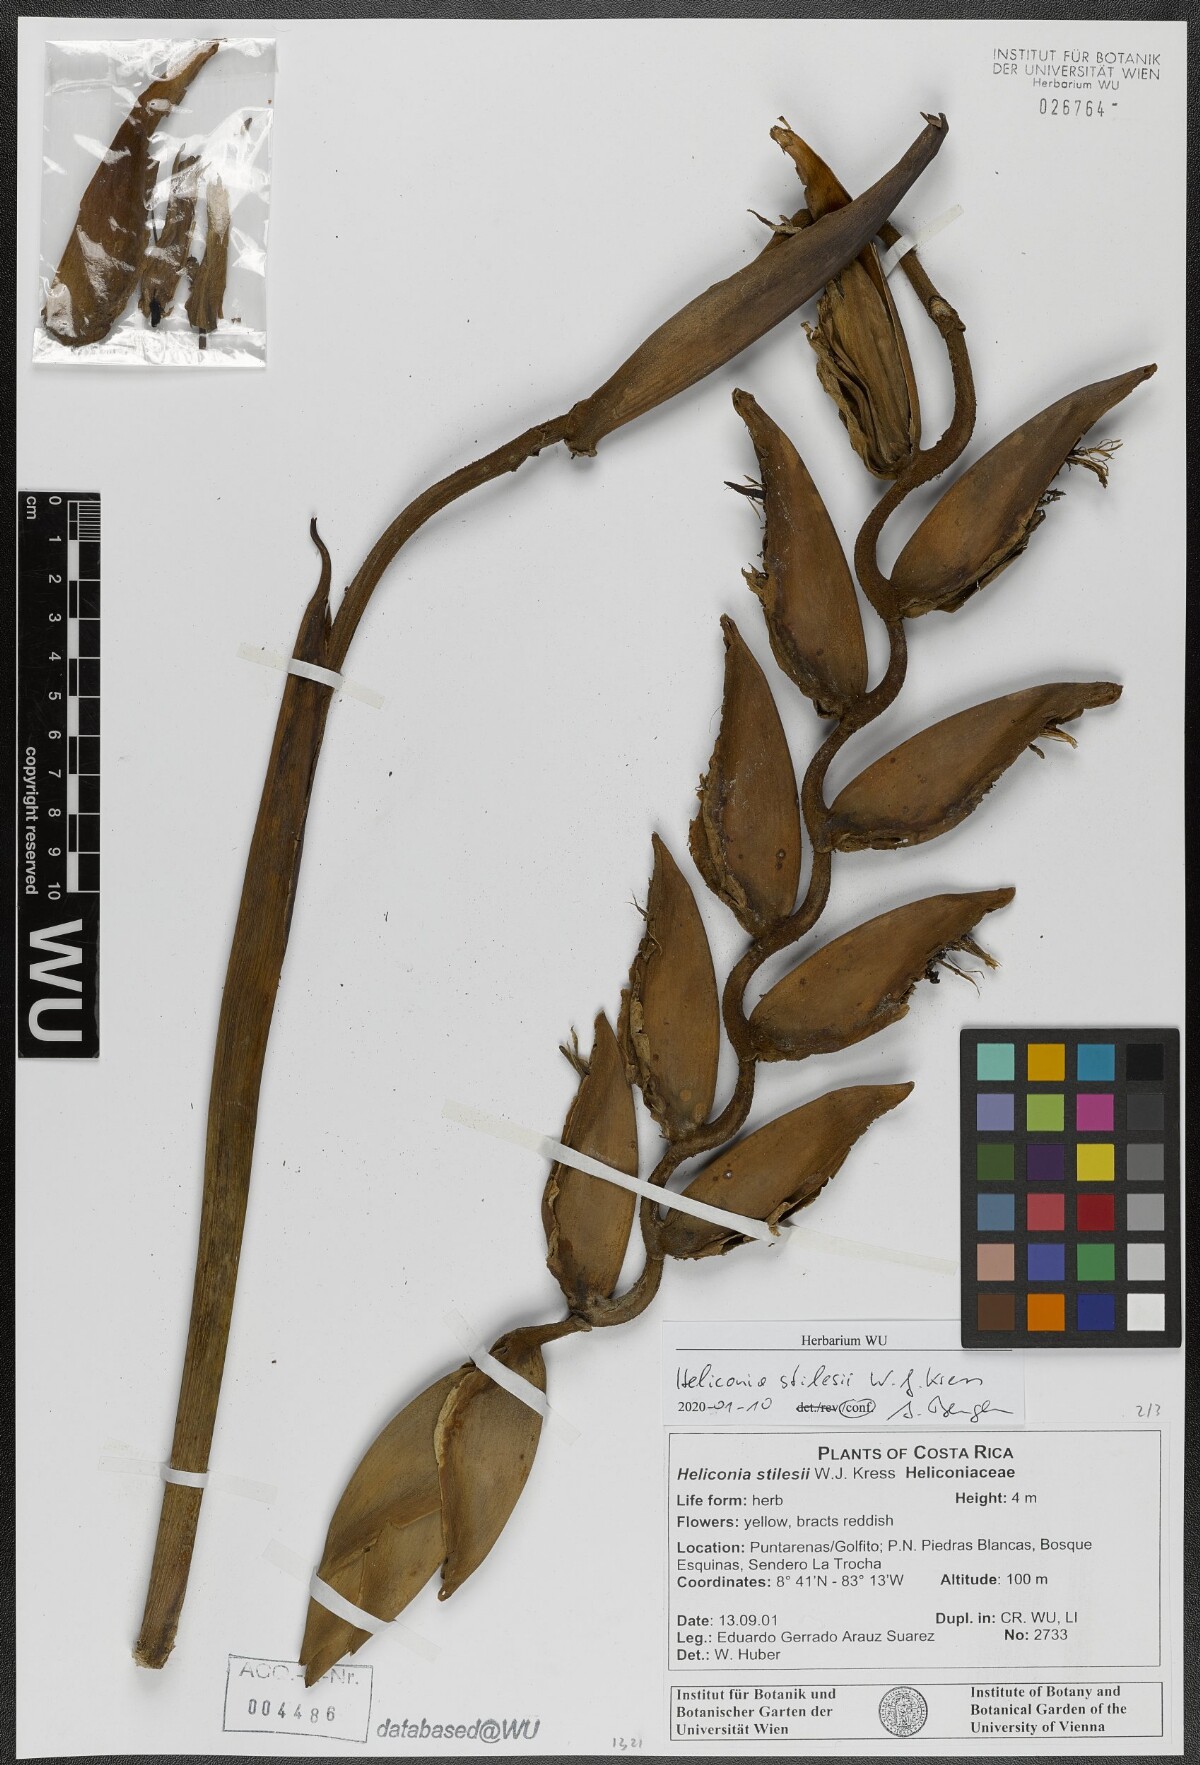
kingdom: Plantae
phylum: Tracheophyta
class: Liliopsida
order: Zingiberales
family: Heliconiaceae
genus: Heliconia
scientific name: Heliconia stilesii
